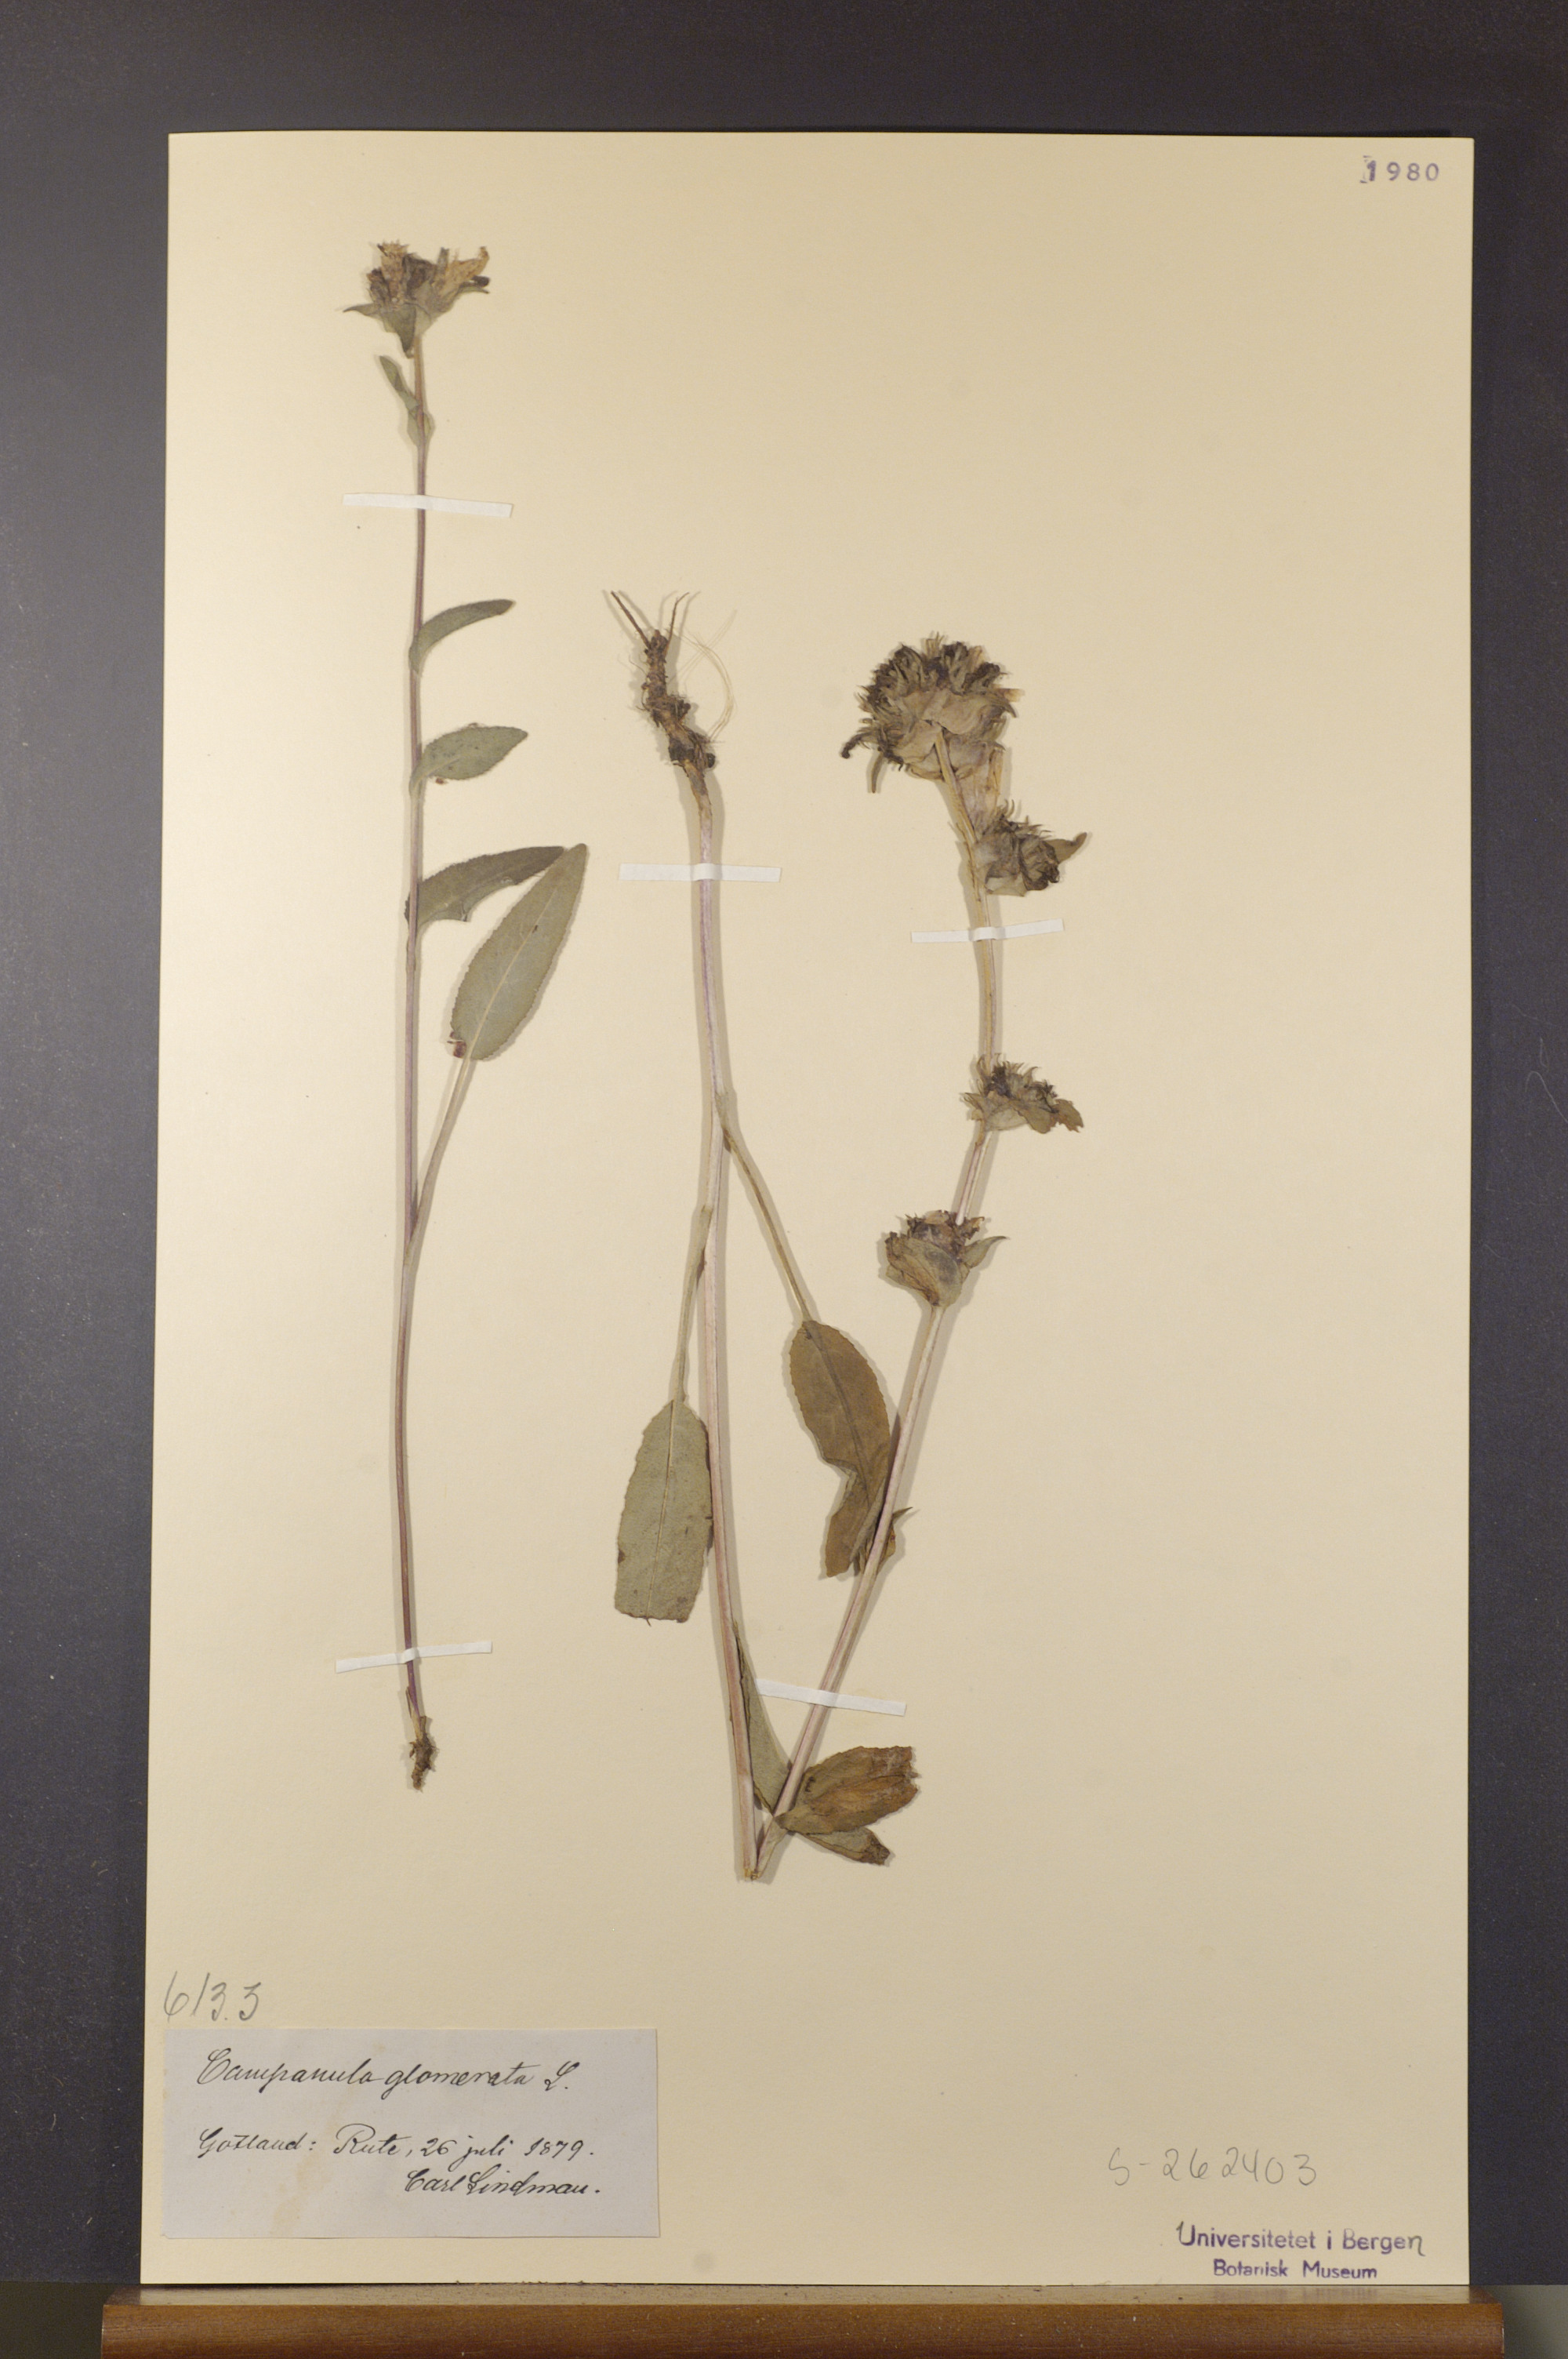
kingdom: Plantae
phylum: Tracheophyta
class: Magnoliopsida
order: Asterales
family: Campanulaceae
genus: Campanula
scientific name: Campanula glomerata
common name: Clustered bellflower
